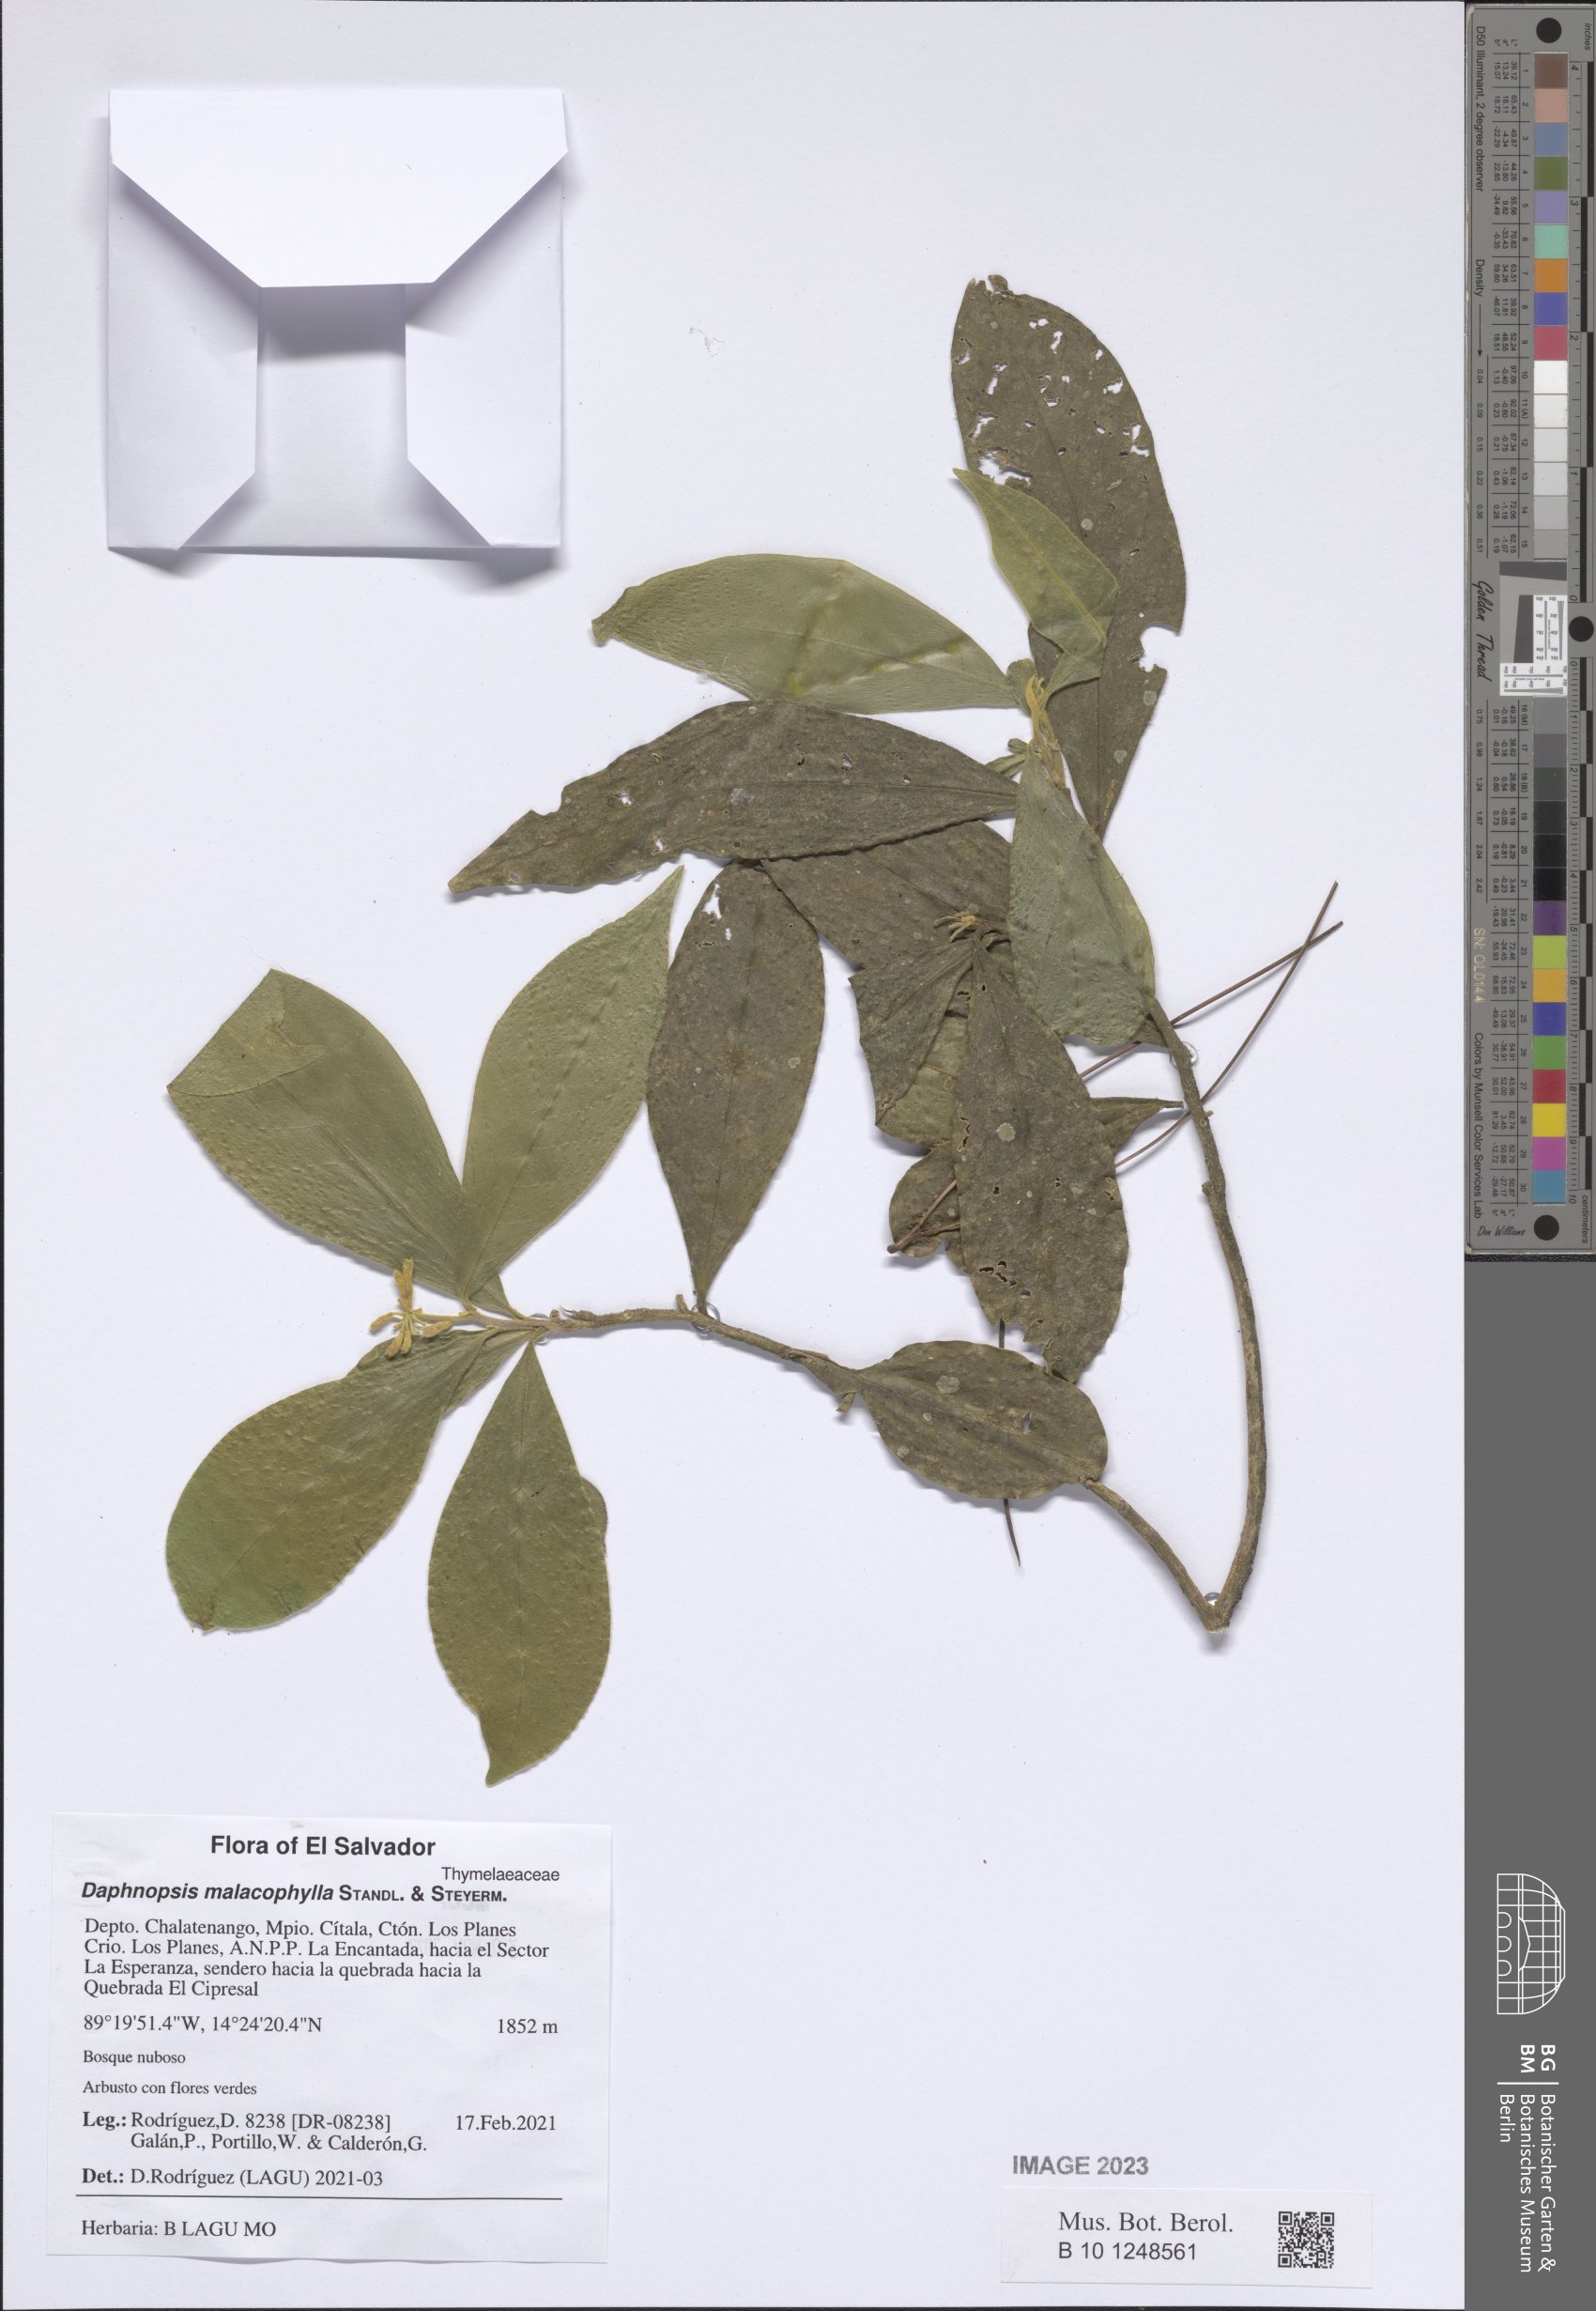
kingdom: Plantae
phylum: Tracheophyta
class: Magnoliopsida
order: Malvales
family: Thymelaeaceae
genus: Daphnopsis
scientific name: Daphnopsis selerorum
